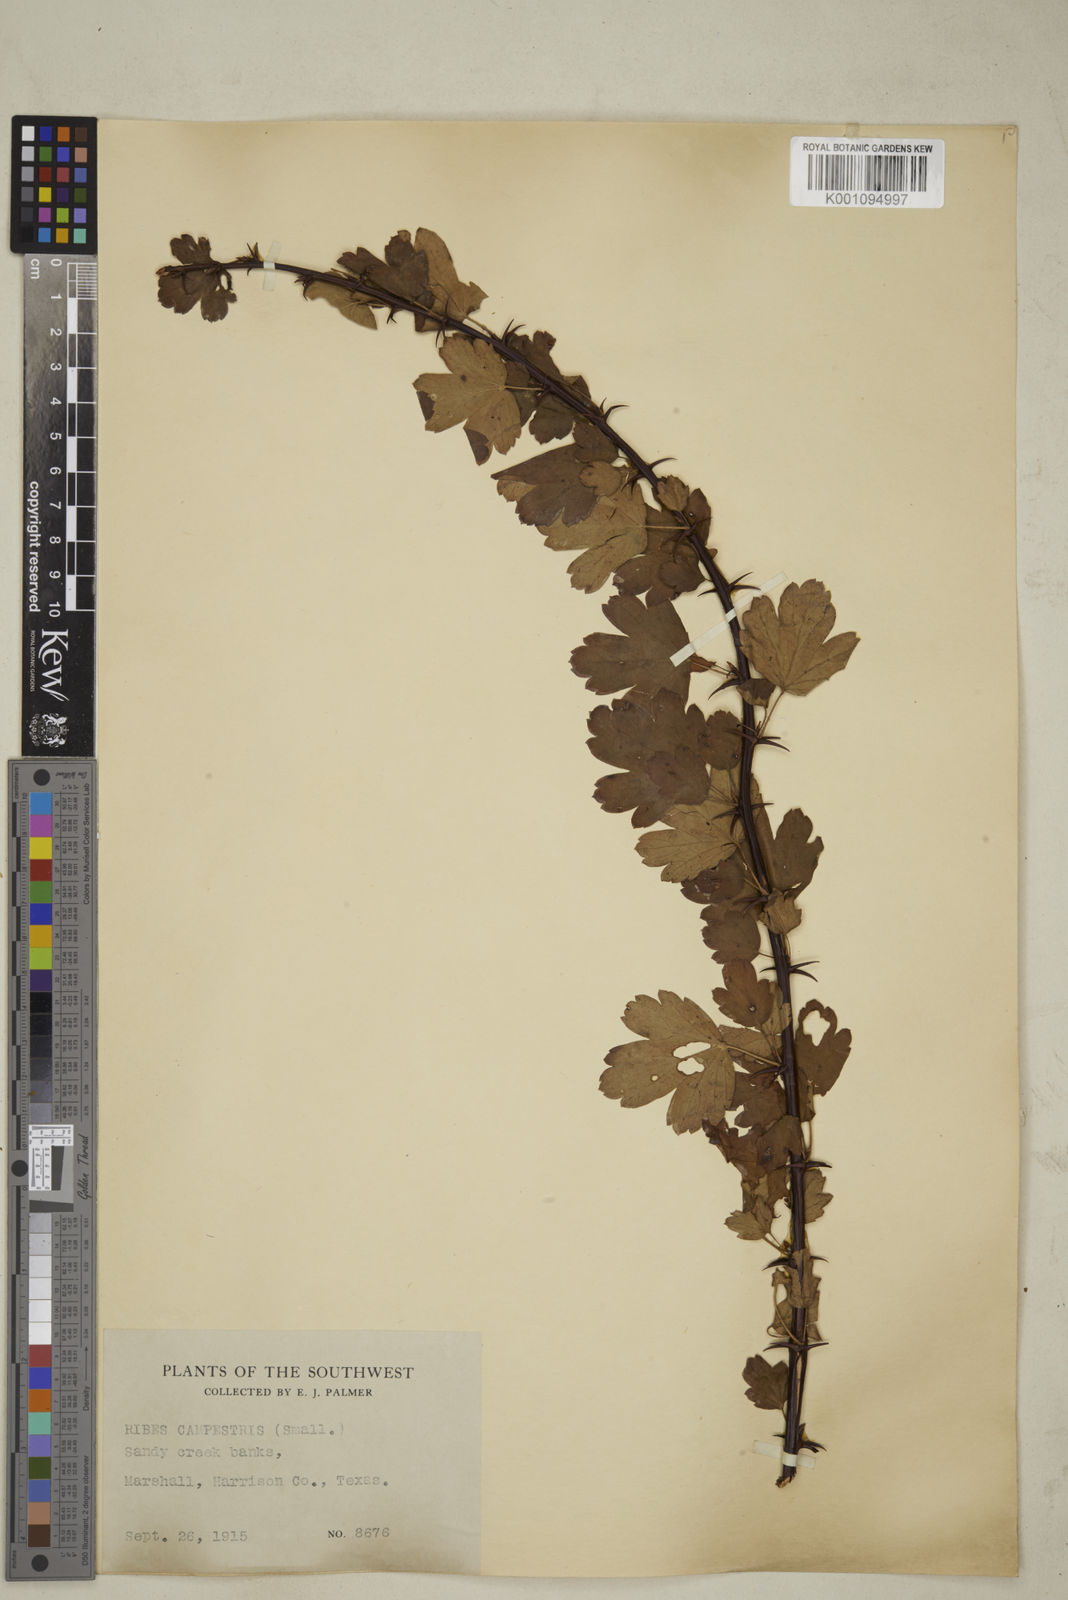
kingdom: Plantae
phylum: Tracheophyta
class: Magnoliopsida
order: Saxifragales
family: Grossulariaceae
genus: Ribes
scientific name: Ribes
